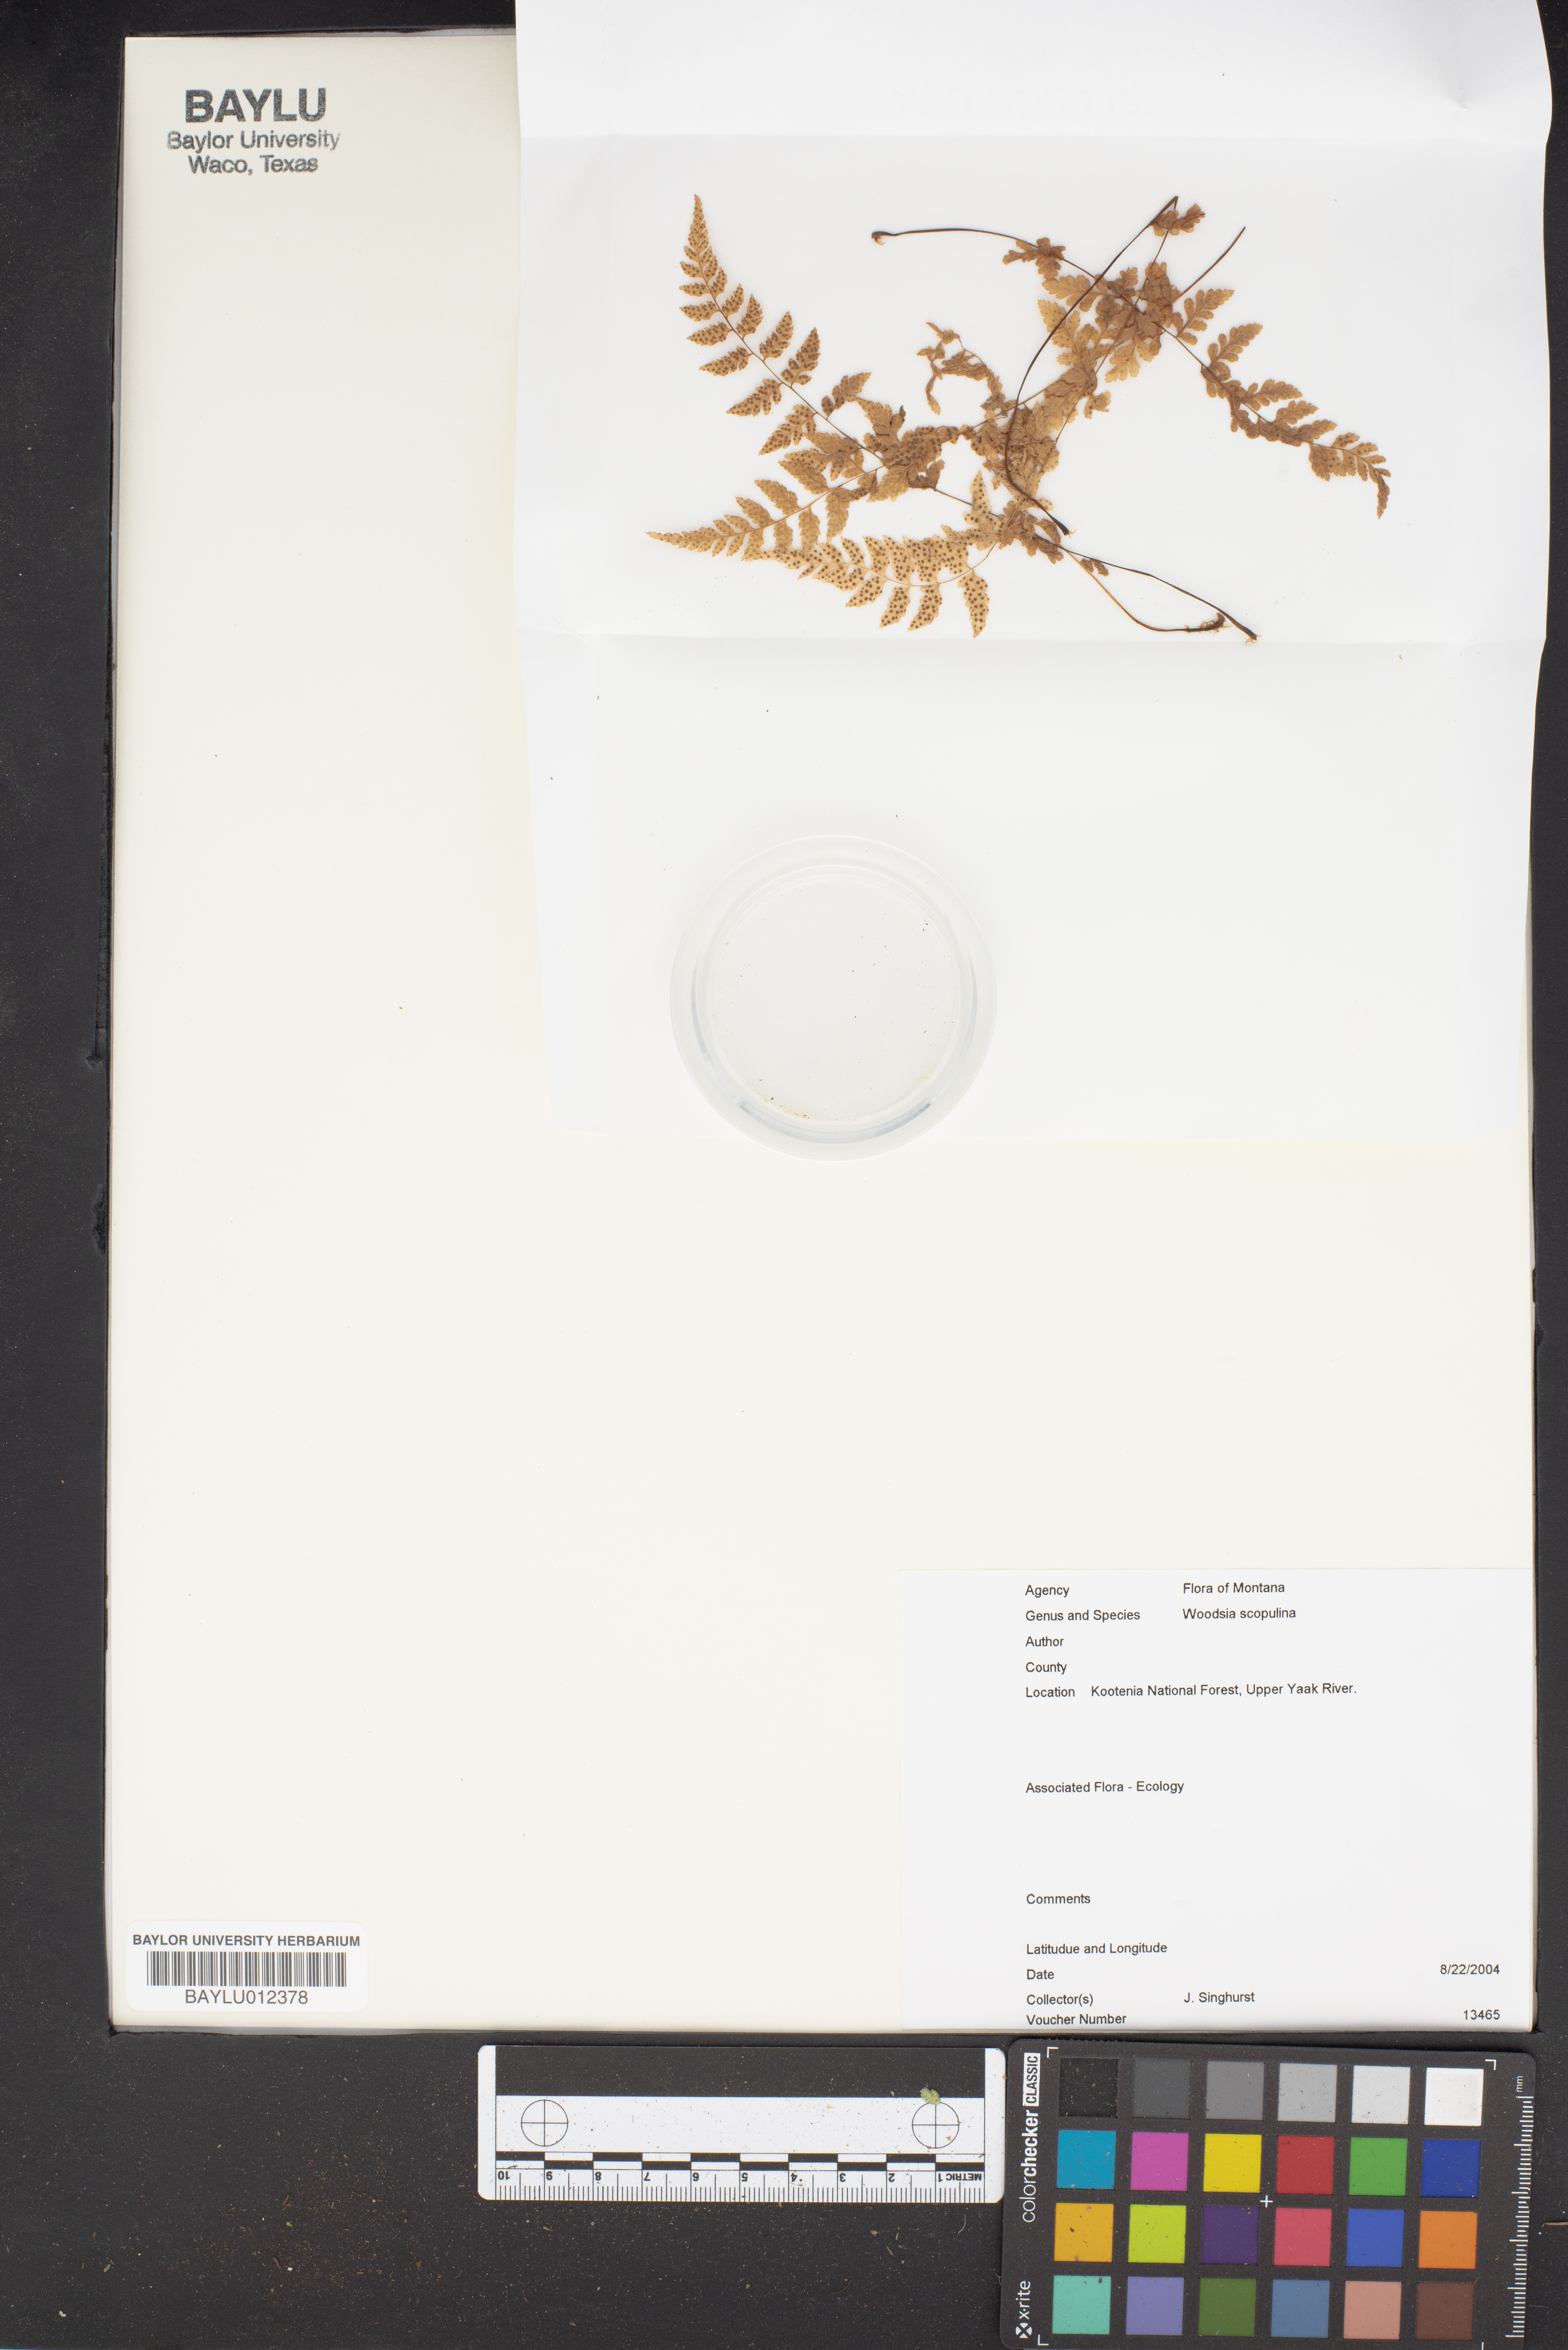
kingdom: Plantae
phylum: Tracheophyta
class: Polypodiopsida
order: Polypodiales
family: Woodsiaceae
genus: Physematium
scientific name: Physematium scopulinum
